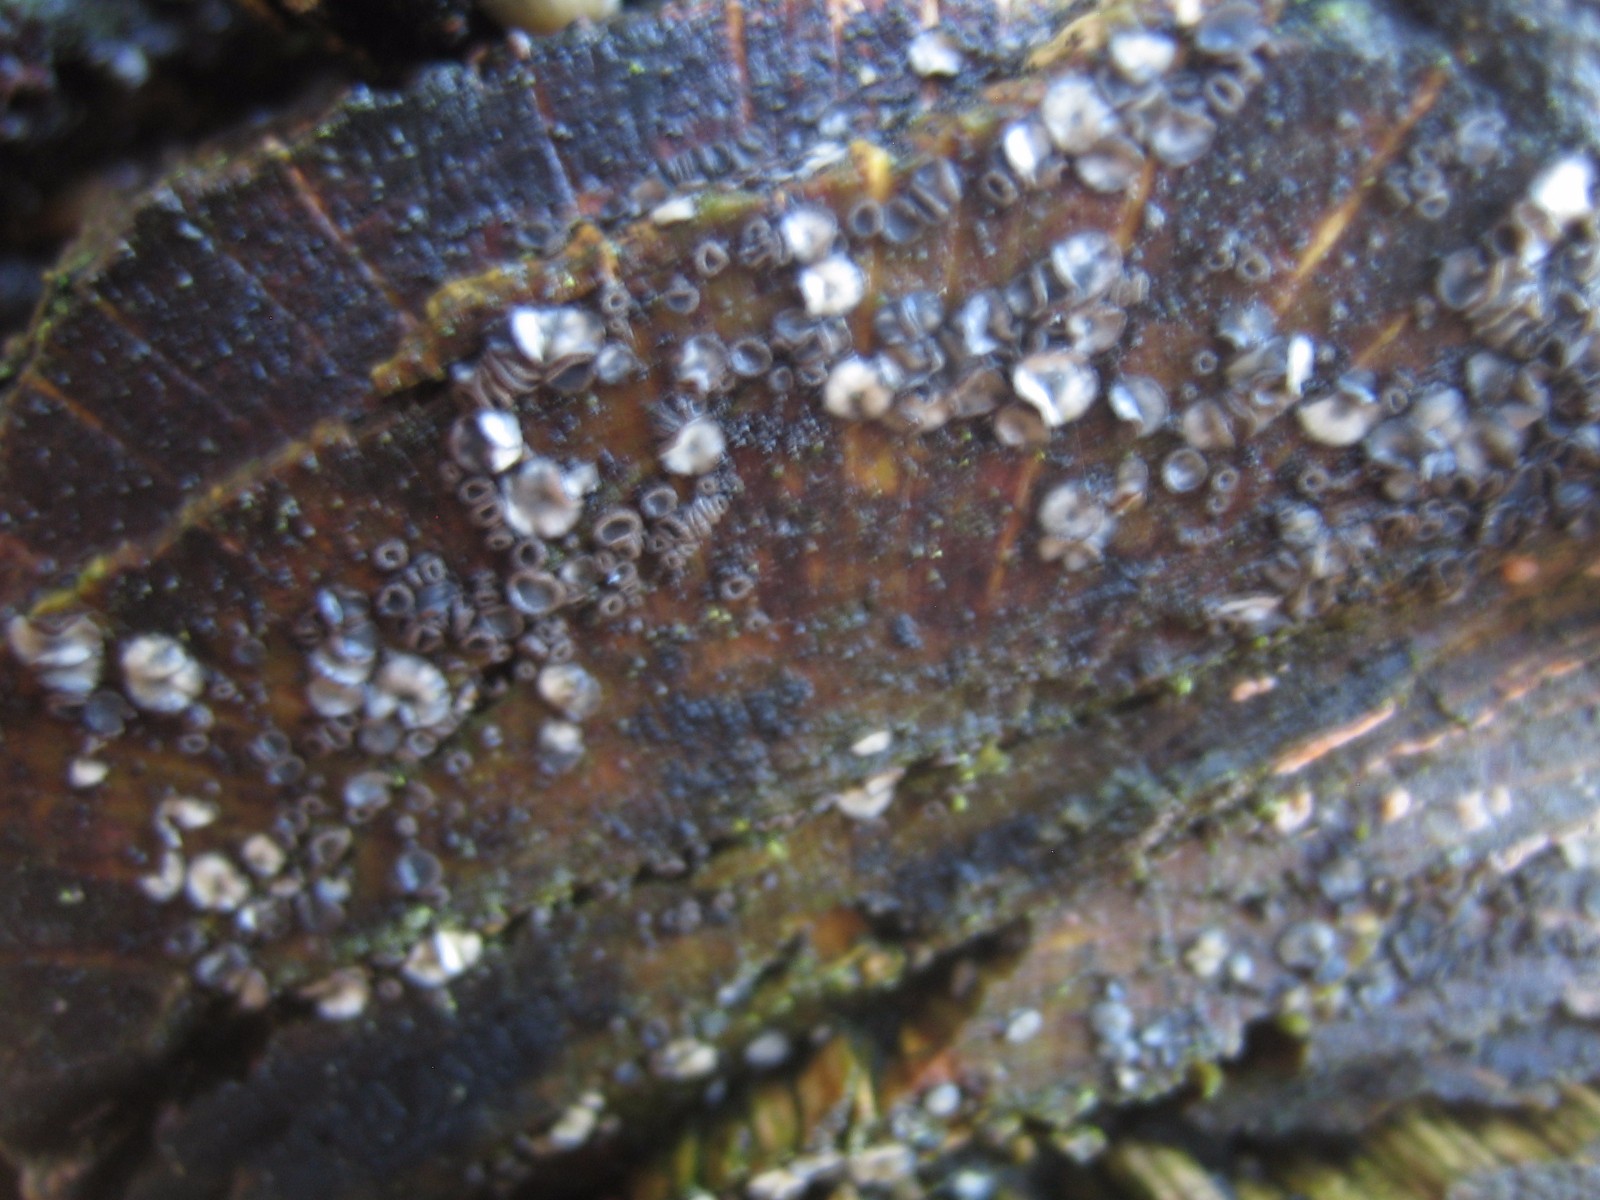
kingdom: Fungi
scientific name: Fungi
